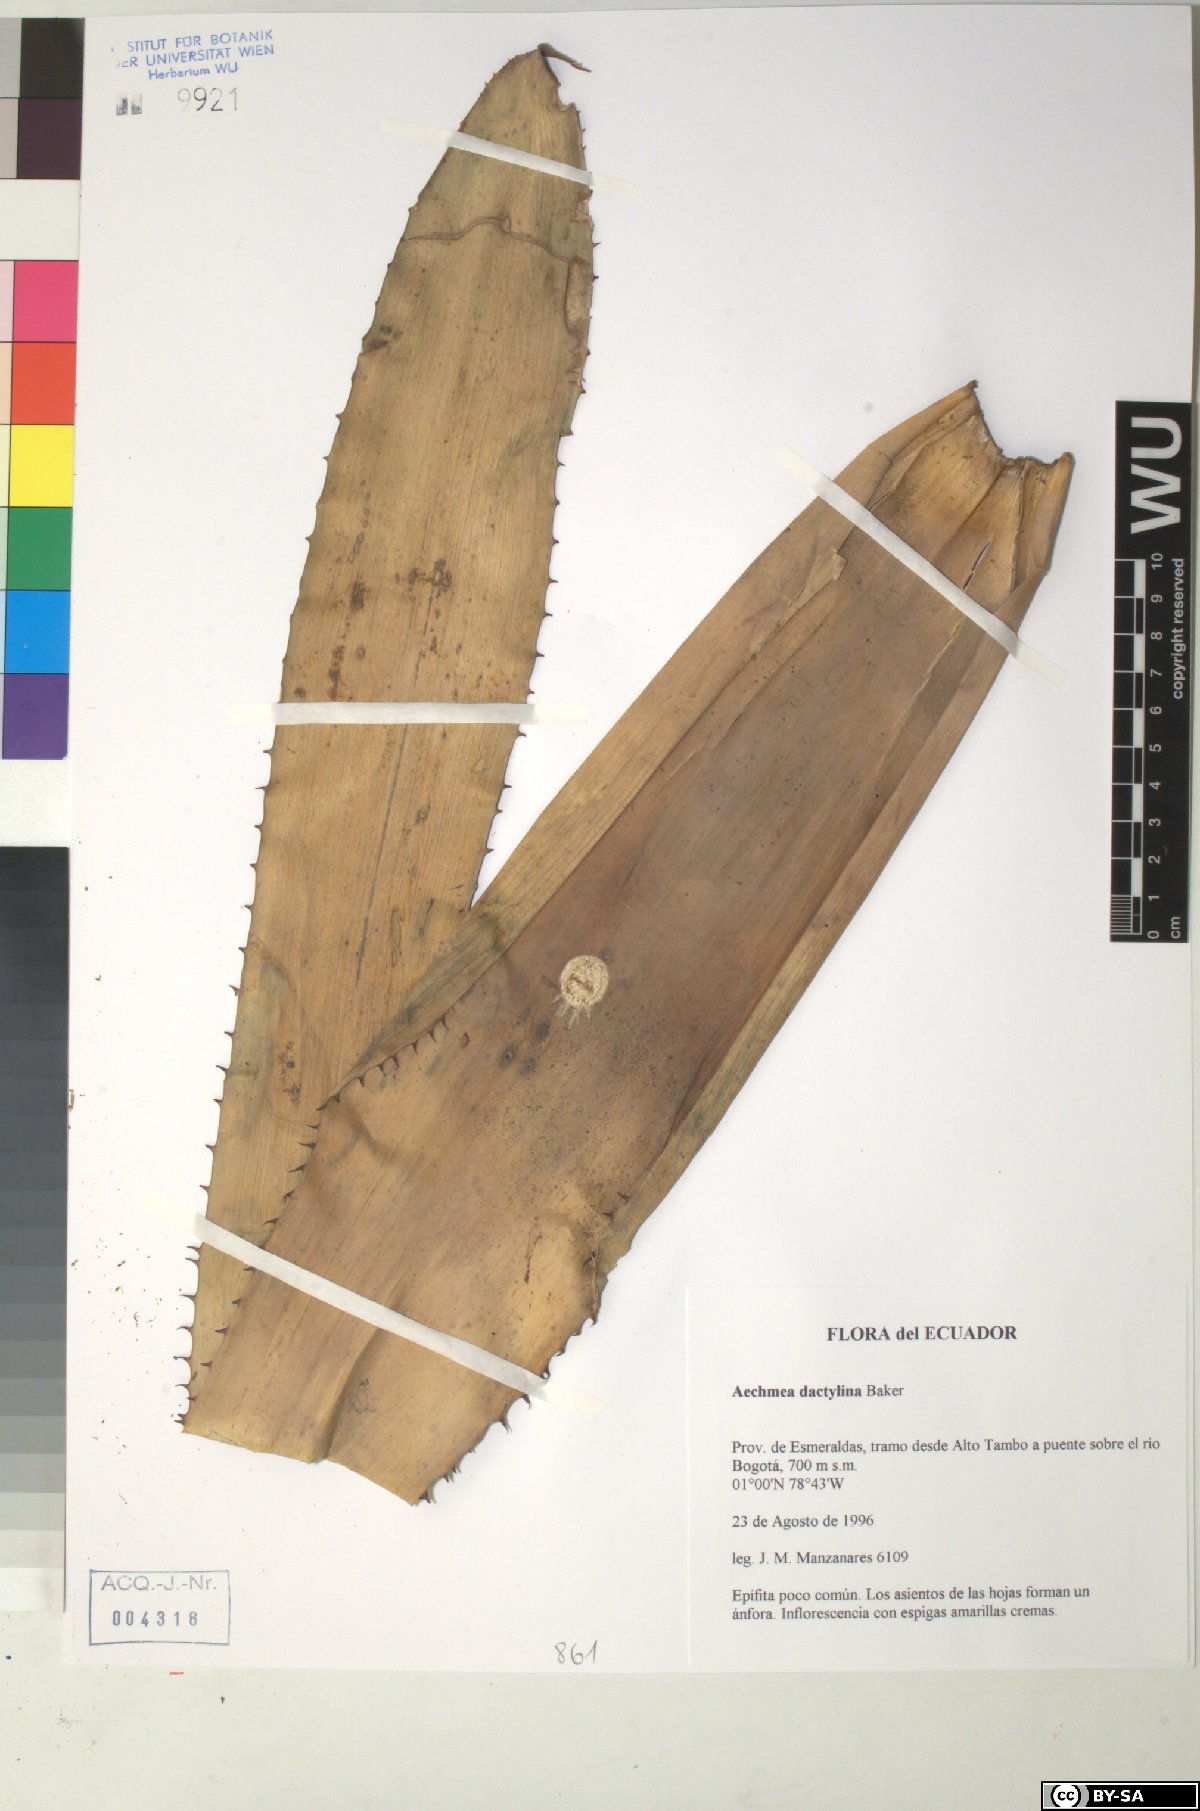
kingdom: Plantae
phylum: Tracheophyta
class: Liliopsida
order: Poales
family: Bromeliaceae
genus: Aechmea
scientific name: Aechmea dactylina
